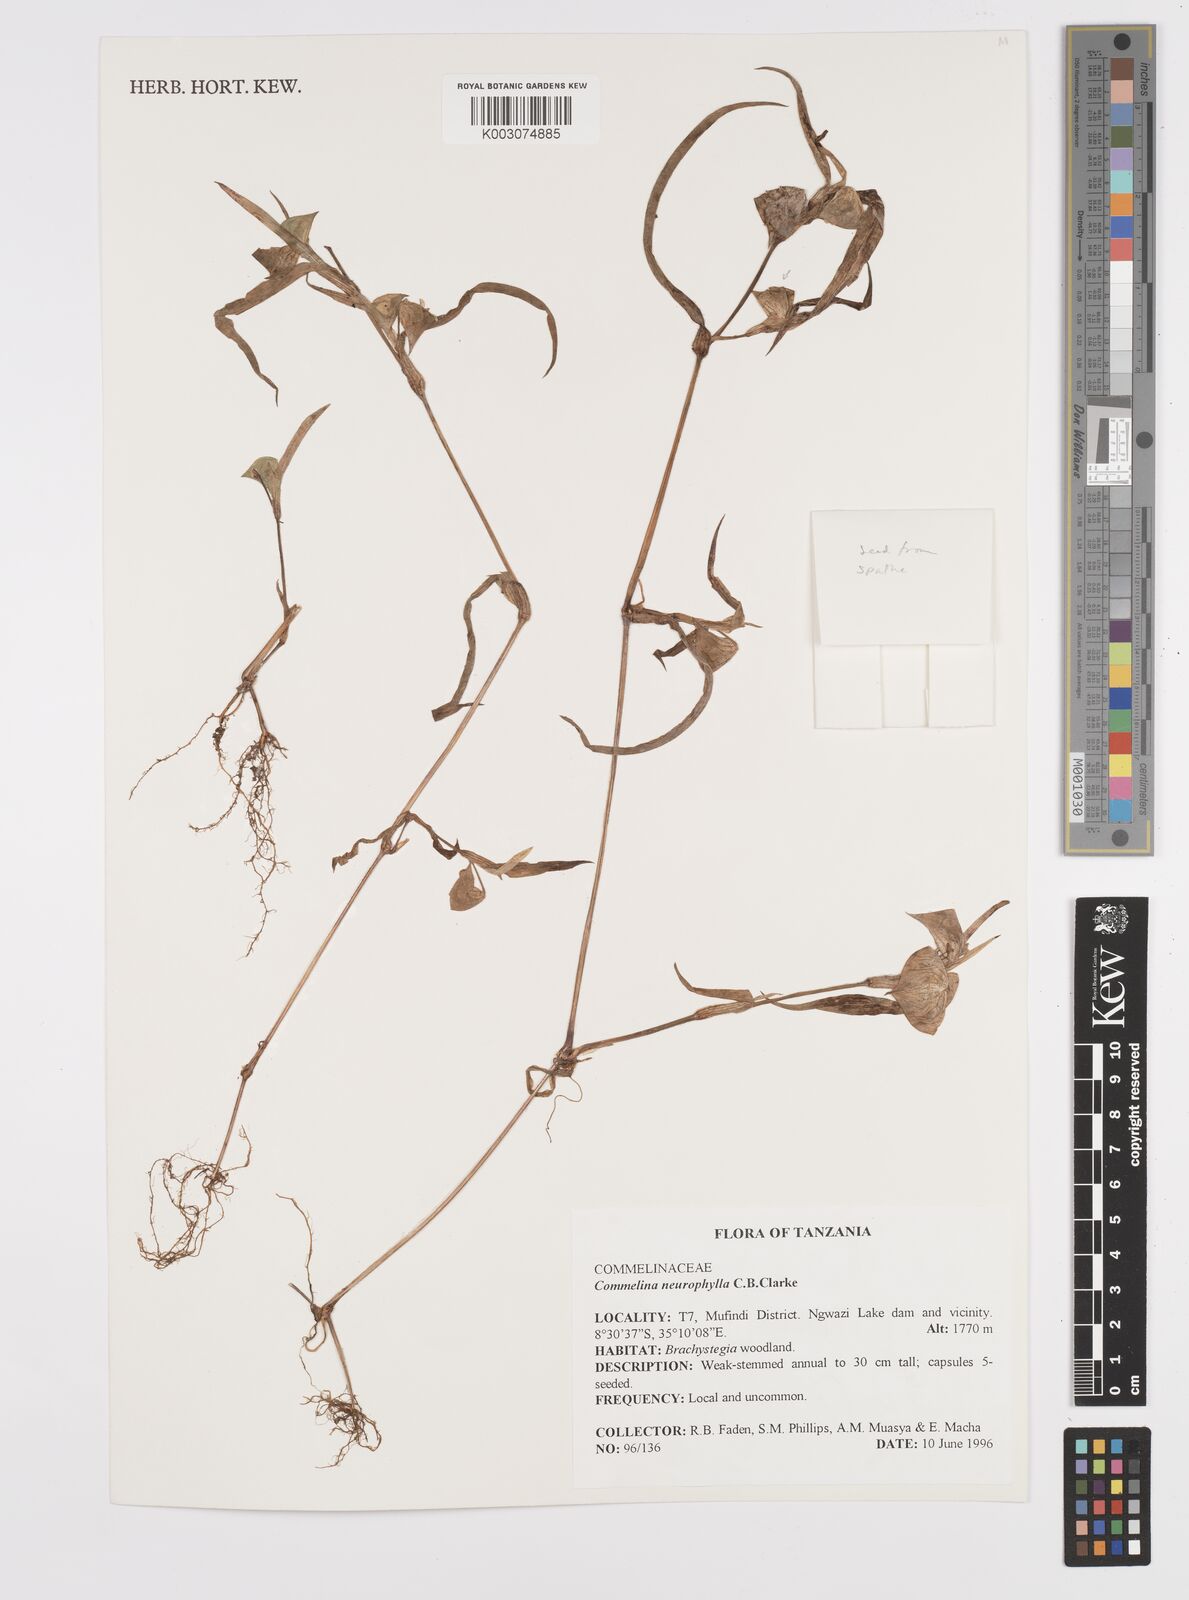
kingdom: Plantae
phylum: Tracheophyta
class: Liliopsida
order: Commelinales
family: Commelinaceae
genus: Commelina
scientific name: Commelina neurophylla
